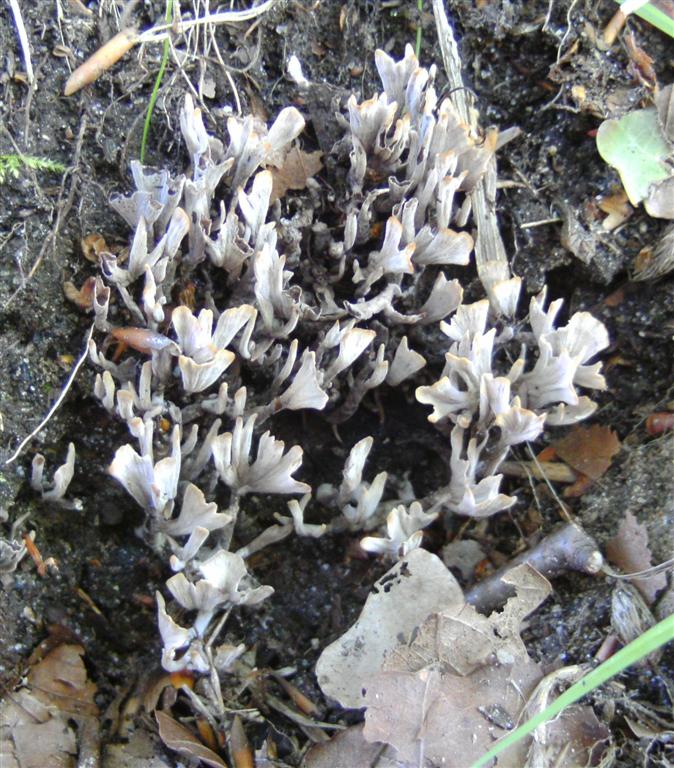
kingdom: Fungi
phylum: Basidiomycota
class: Agaricomycetes
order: Thelephorales
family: Thelephoraceae
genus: Thelephora
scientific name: Thelephora
